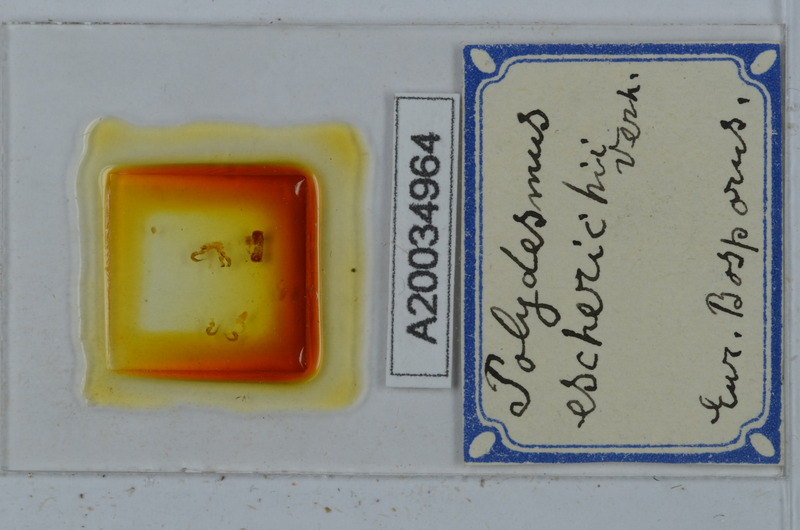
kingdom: Animalia
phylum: Arthropoda
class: Diplopoda
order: Polydesmida
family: Polydesmidae
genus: Polydesmus
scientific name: Polydesmus escherichii
